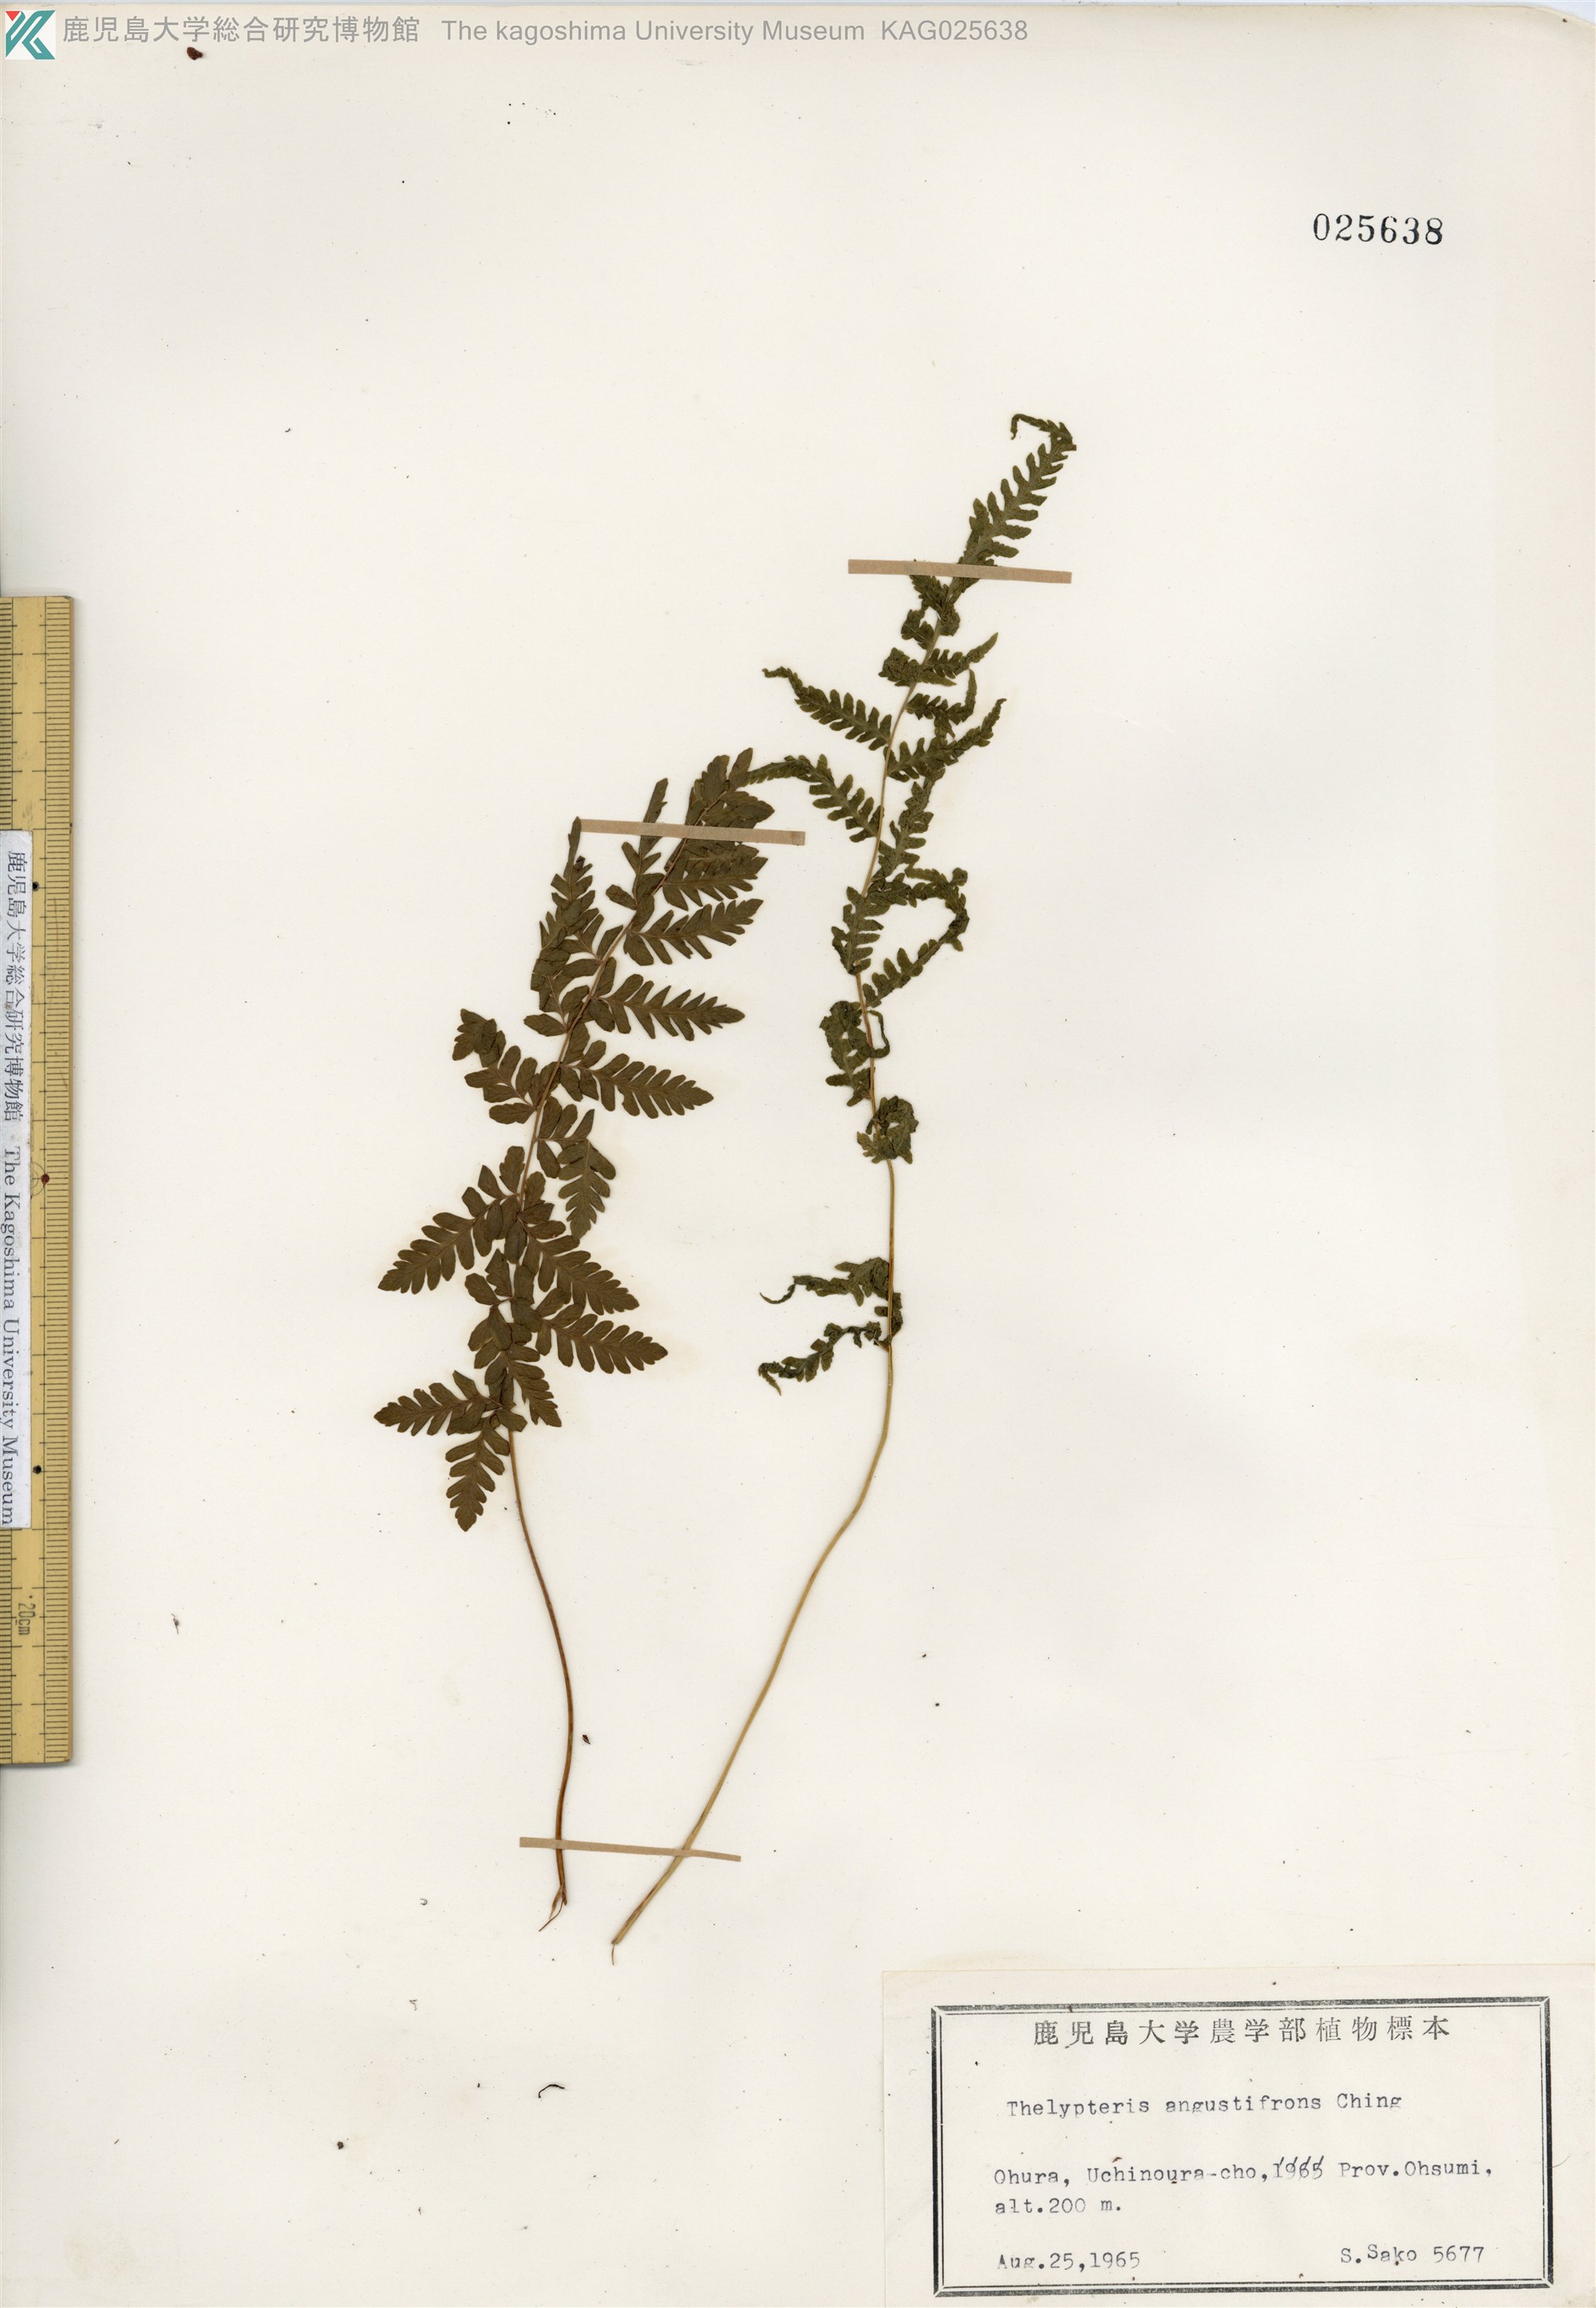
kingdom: Plantae
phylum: Tracheophyta
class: Polypodiopsida
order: Polypodiales
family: Thelypteridaceae
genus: Amauropelta
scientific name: Amauropelta angustifrons
